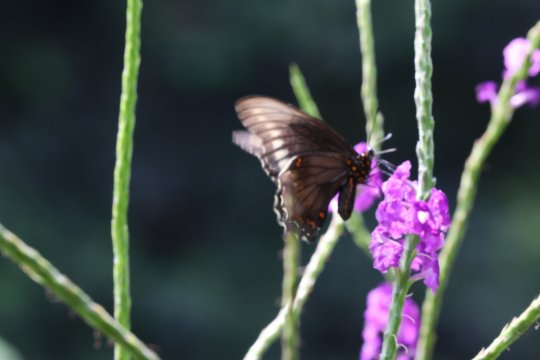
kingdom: Animalia
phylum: Arthropoda
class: Insecta
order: Lepidoptera
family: Papilionidae
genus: Battus
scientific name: Battus polydamas
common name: Polydamas Swallowtail
